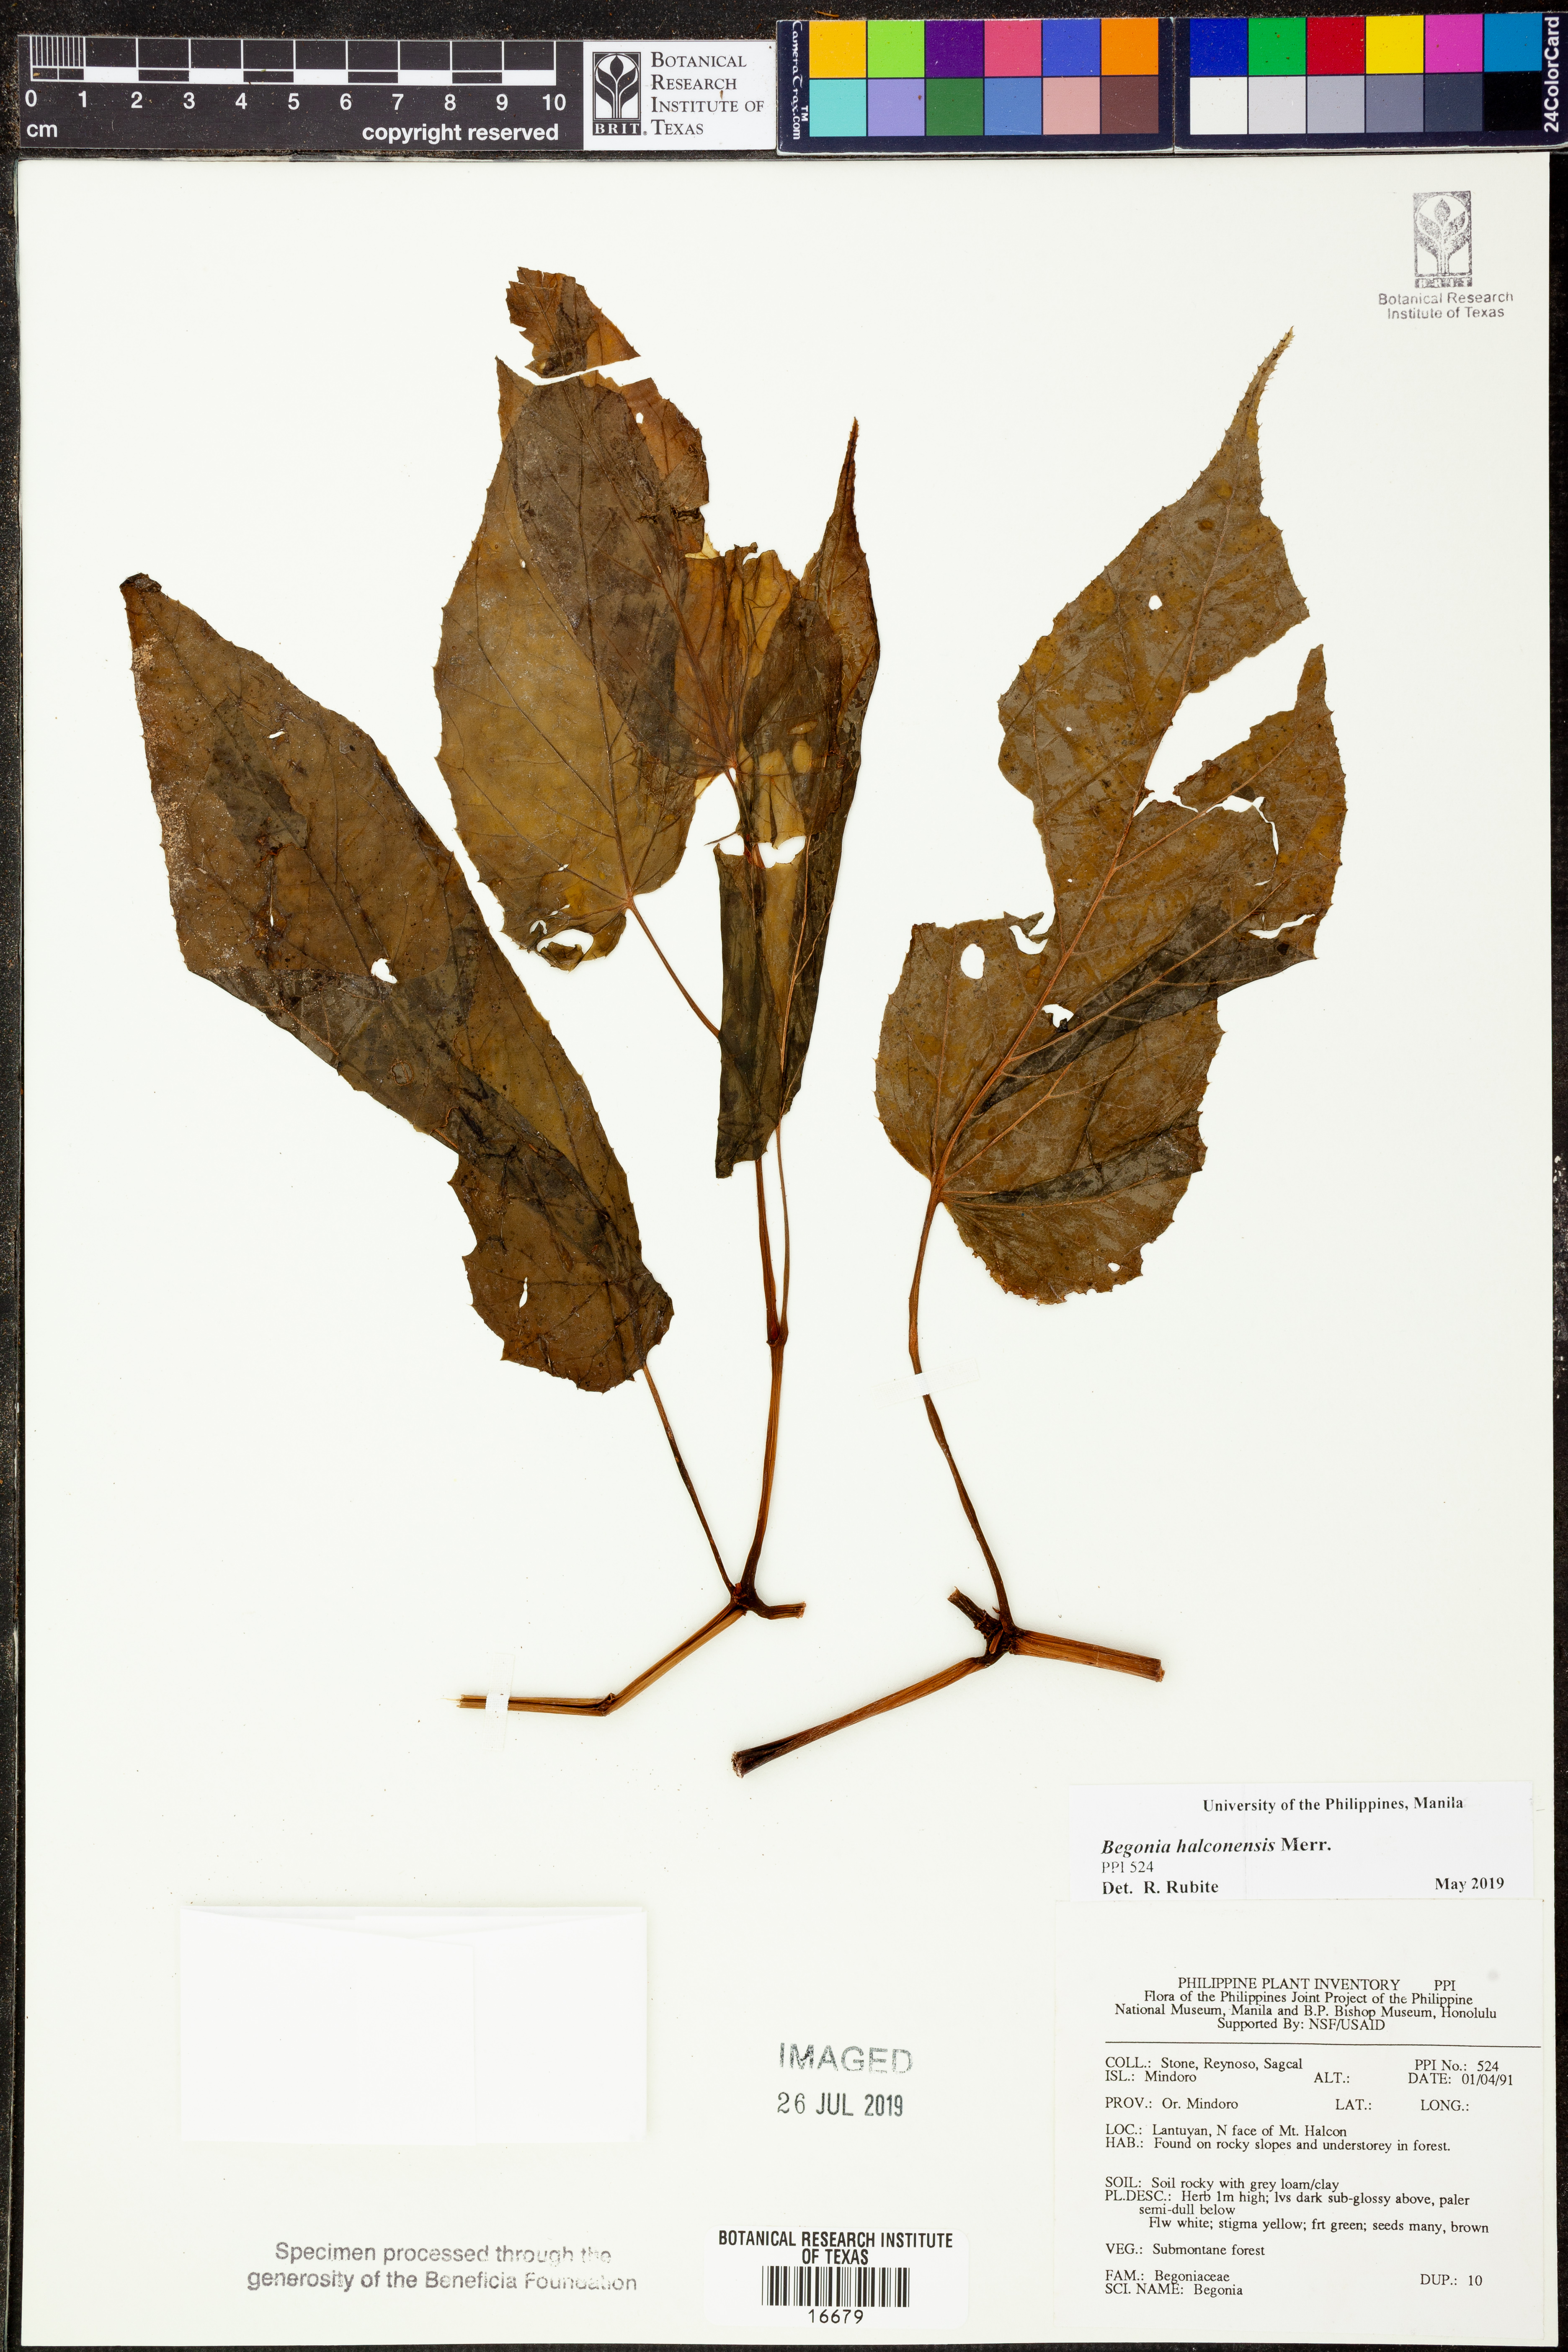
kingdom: Plantae
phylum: Tracheophyta
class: Magnoliopsida
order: Cucurbitales
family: Begoniaceae
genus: Begonia
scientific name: Begonia halconensis
